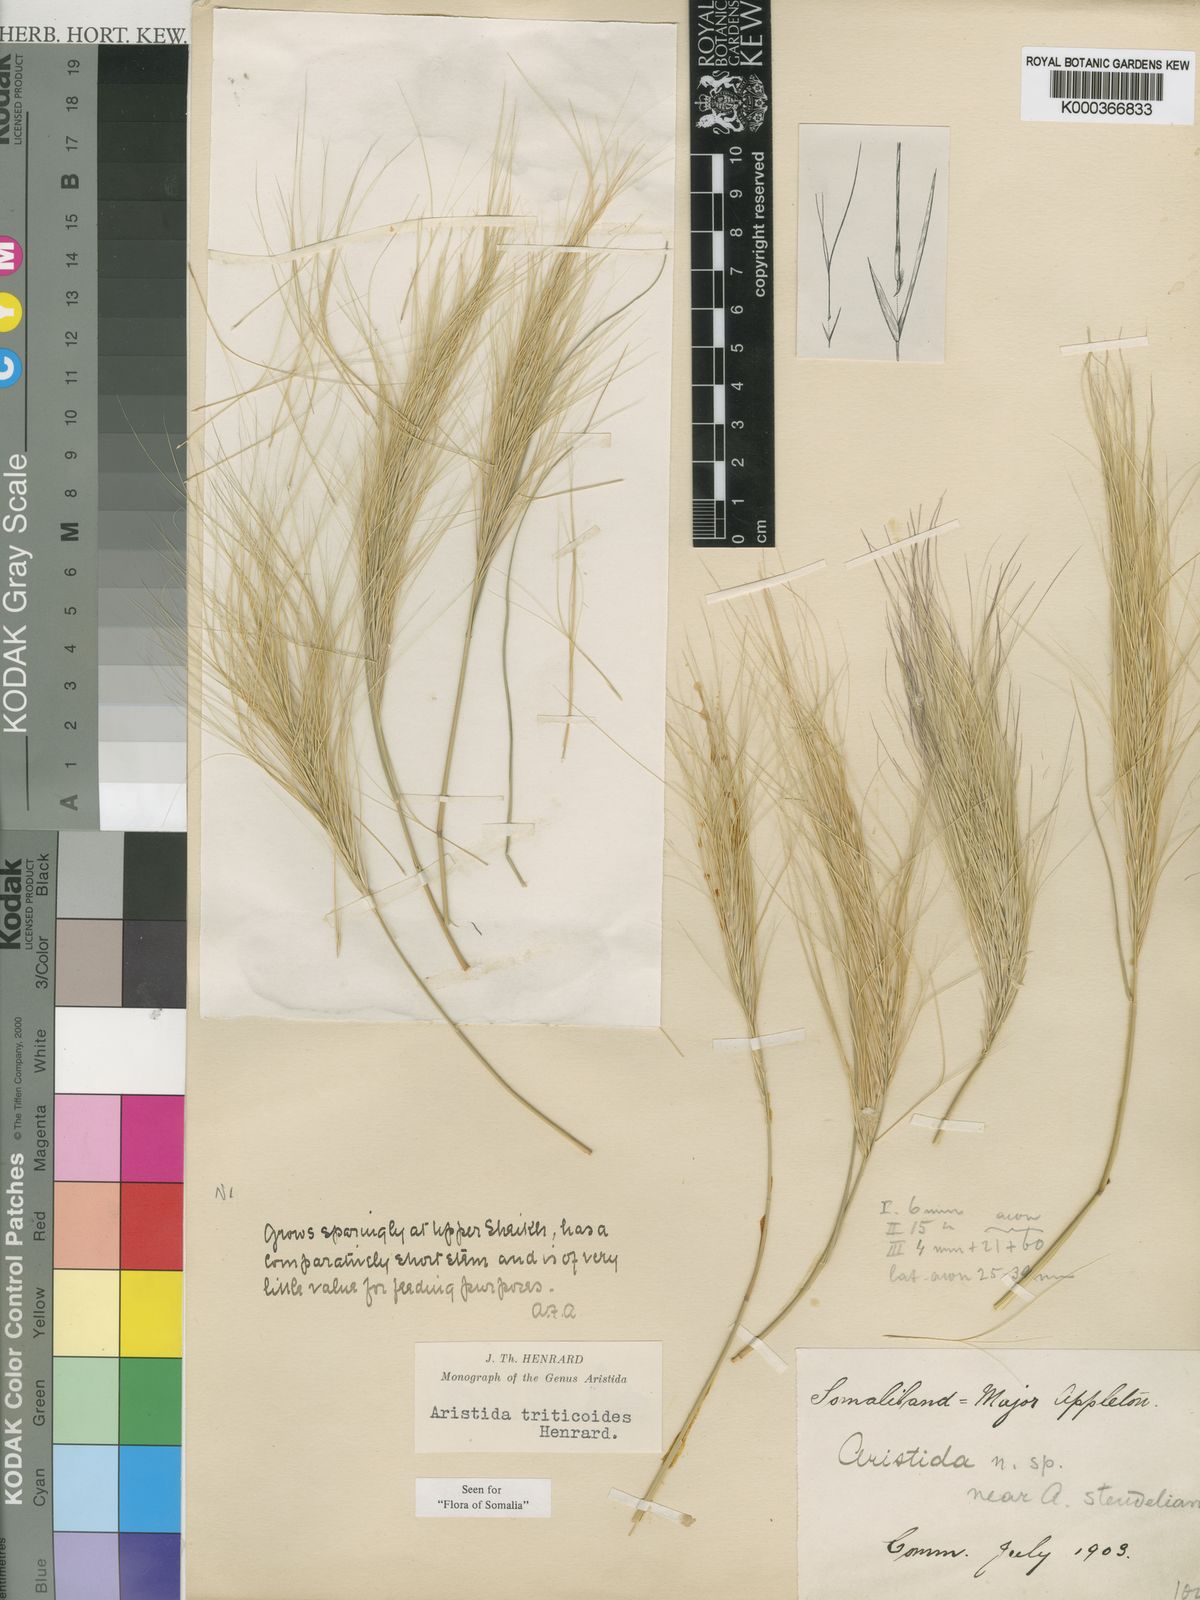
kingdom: Plantae
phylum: Tracheophyta
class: Liliopsida
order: Poales
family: Poaceae
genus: Aristida
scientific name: Aristida triticoides
